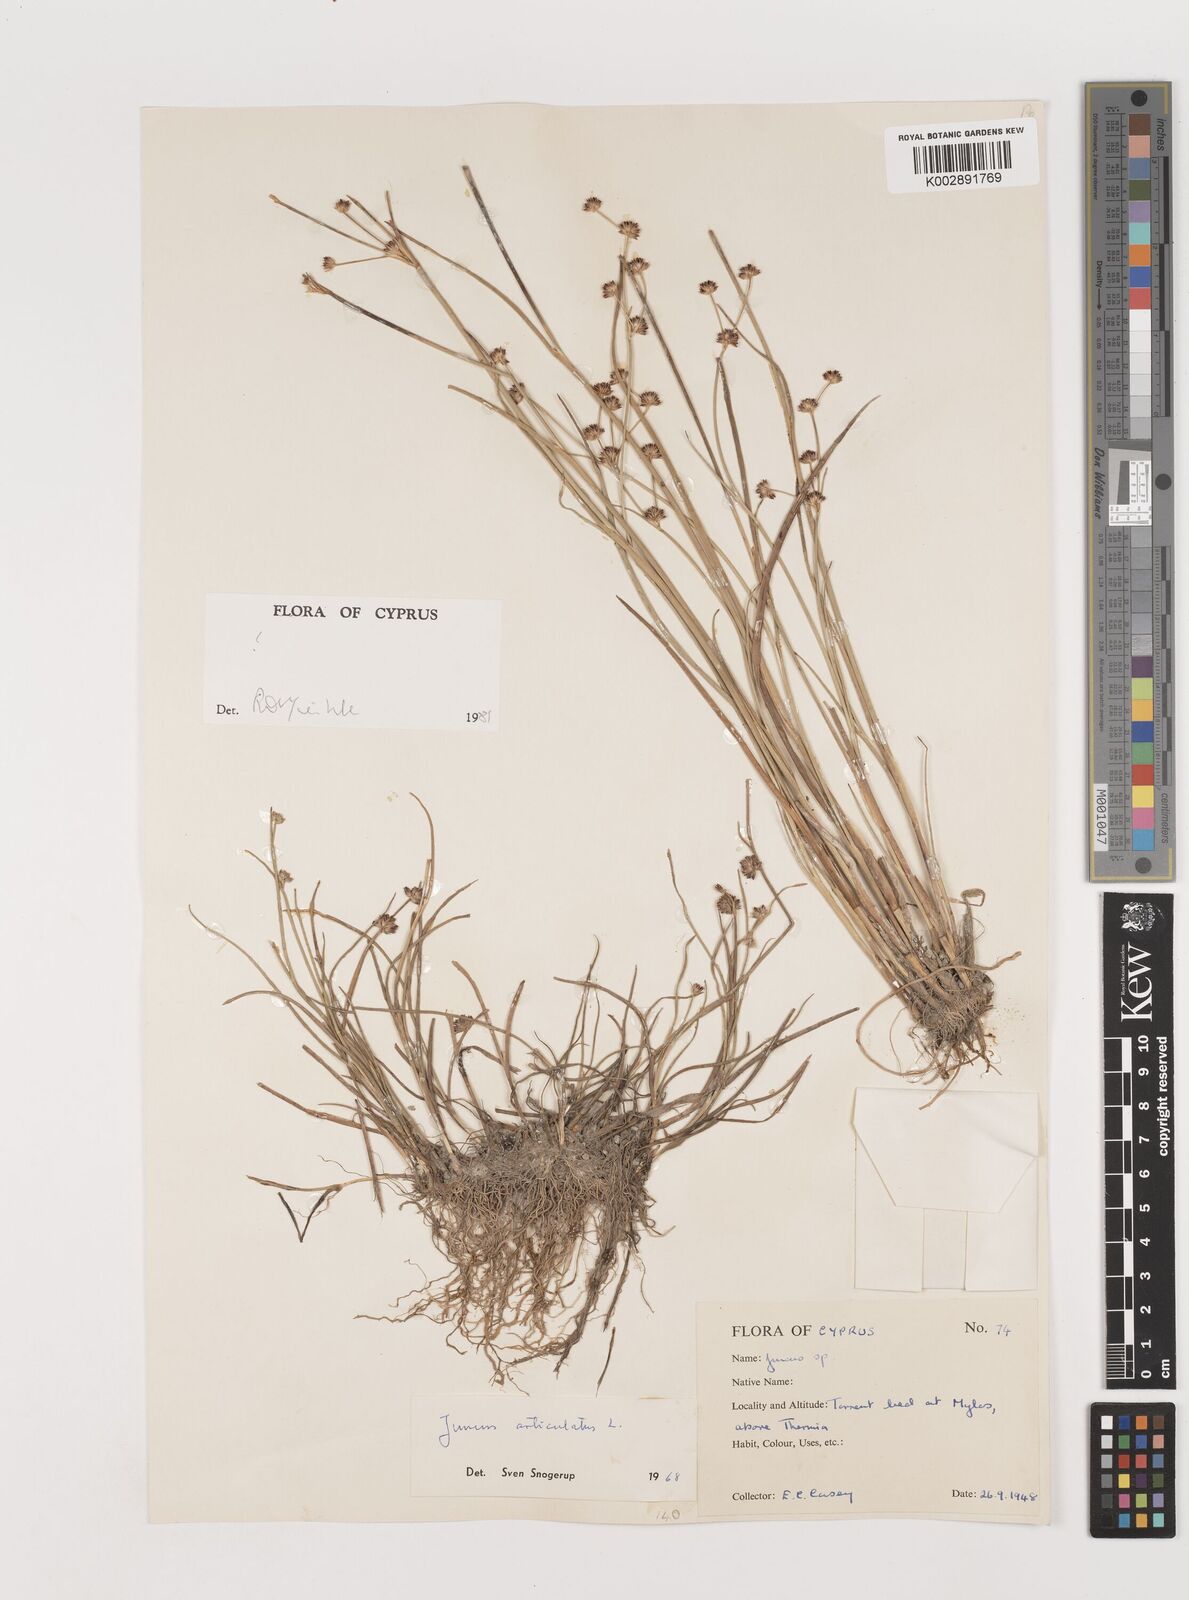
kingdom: Plantae
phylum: Tracheophyta
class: Liliopsida
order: Poales
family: Juncaceae
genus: Juncus
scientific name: Juncus articulatus
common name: Jointed rush
